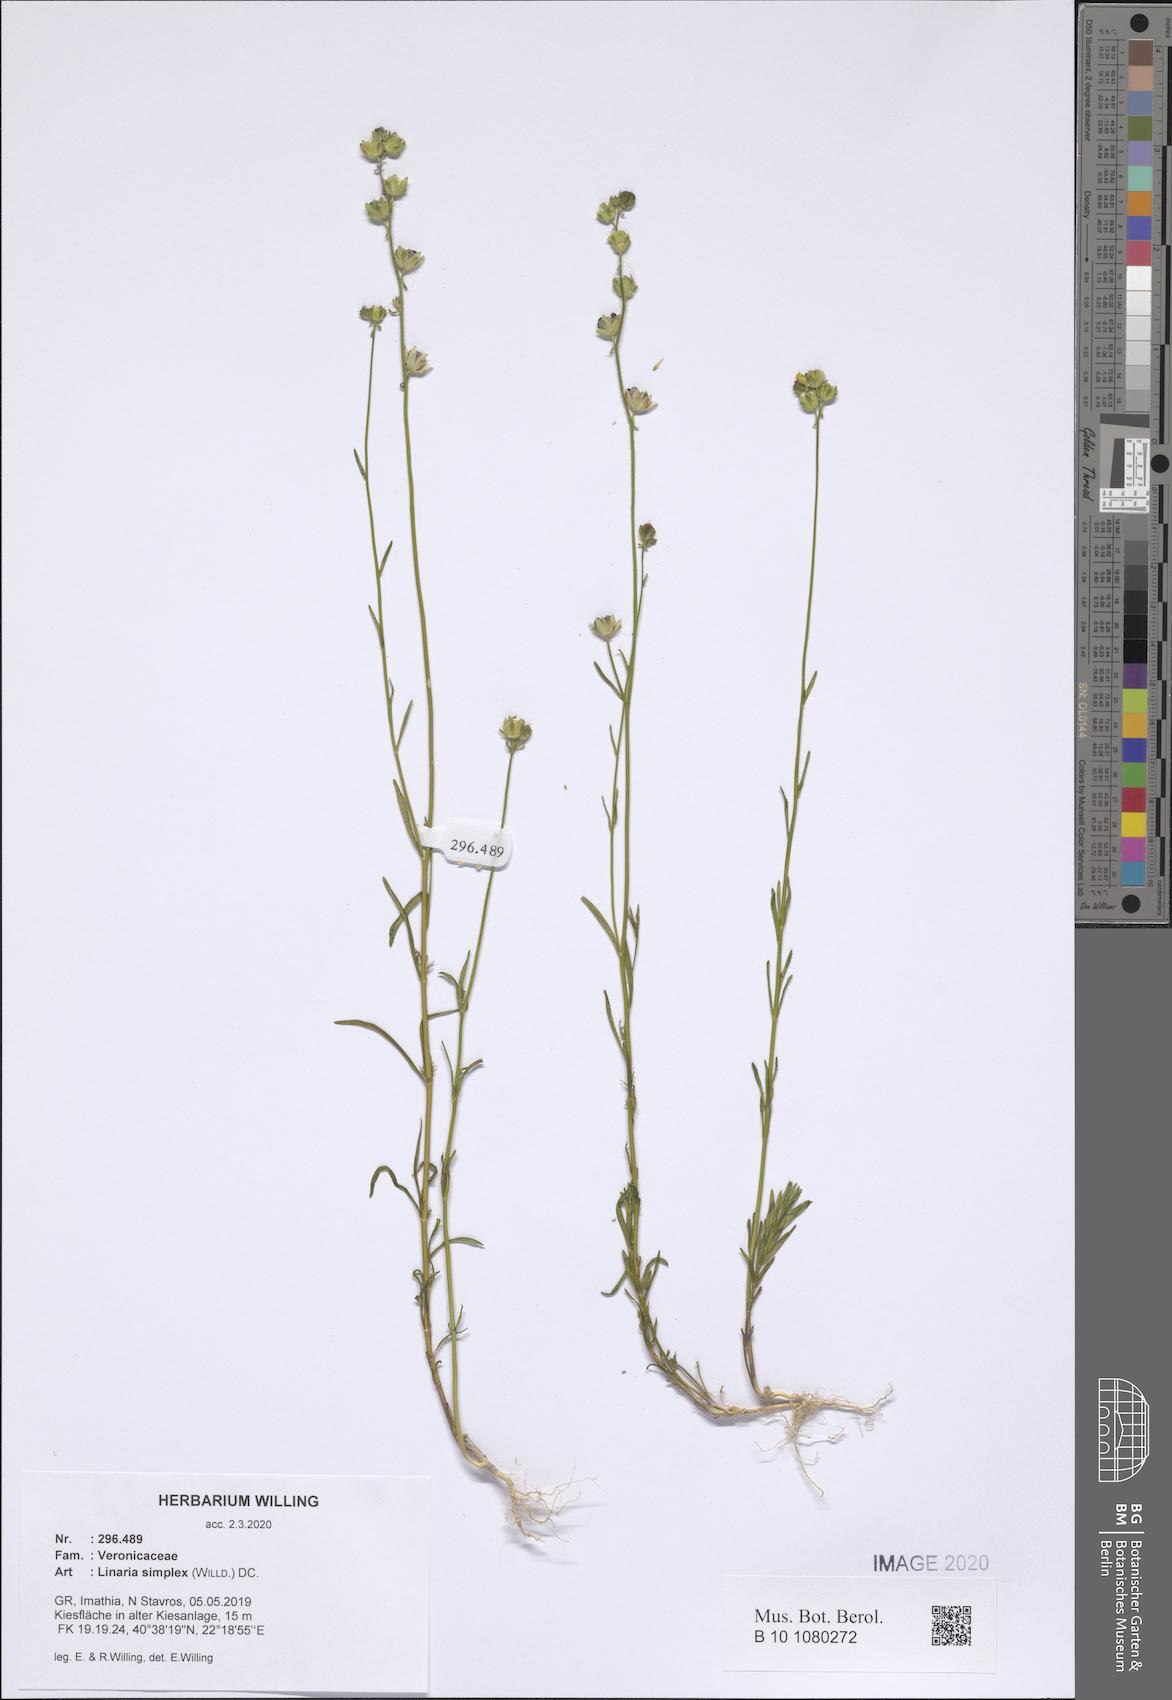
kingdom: Plantae
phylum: Tracheophyta
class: Magnoliopsida
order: Lamiales
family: Plantaginaceae
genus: Linaria
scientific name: Linaria simplex
